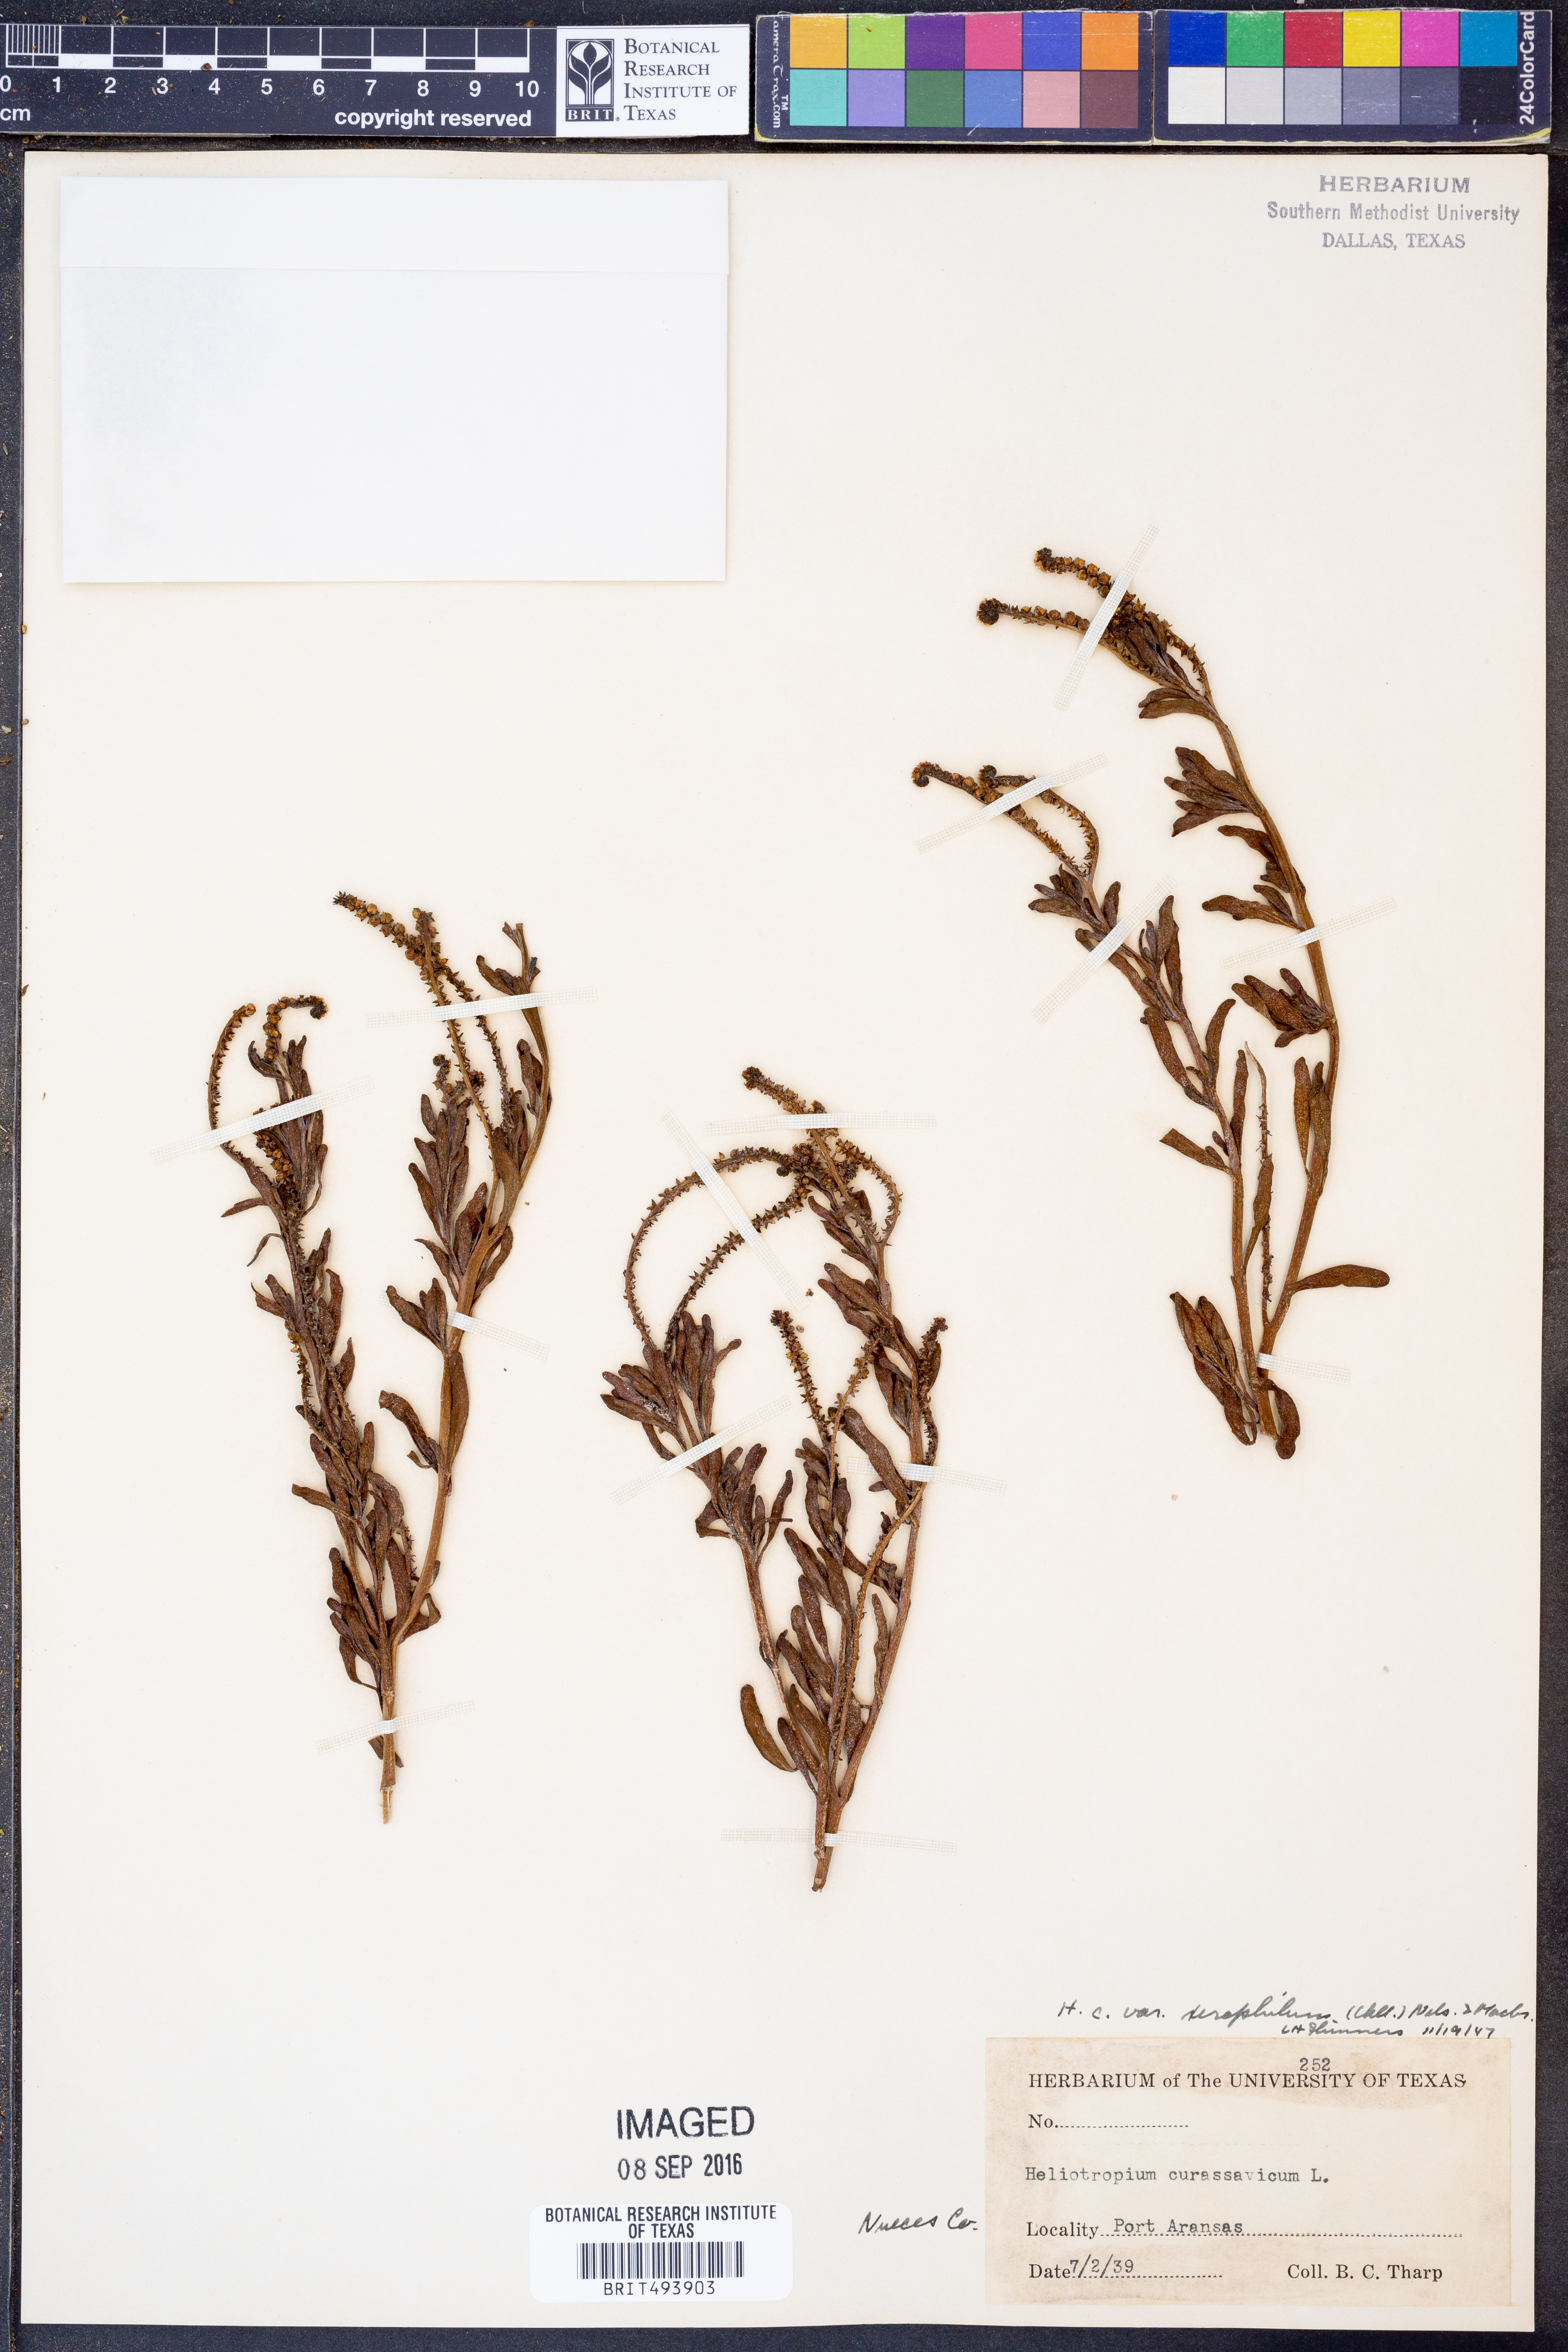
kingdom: Plantae
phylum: Tracheophyta
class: Magnoliopsida
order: Boraginales
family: Heliotropiaceae
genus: Heliotropium
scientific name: Heliotropium curassavicum
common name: Seaside heliotrope
